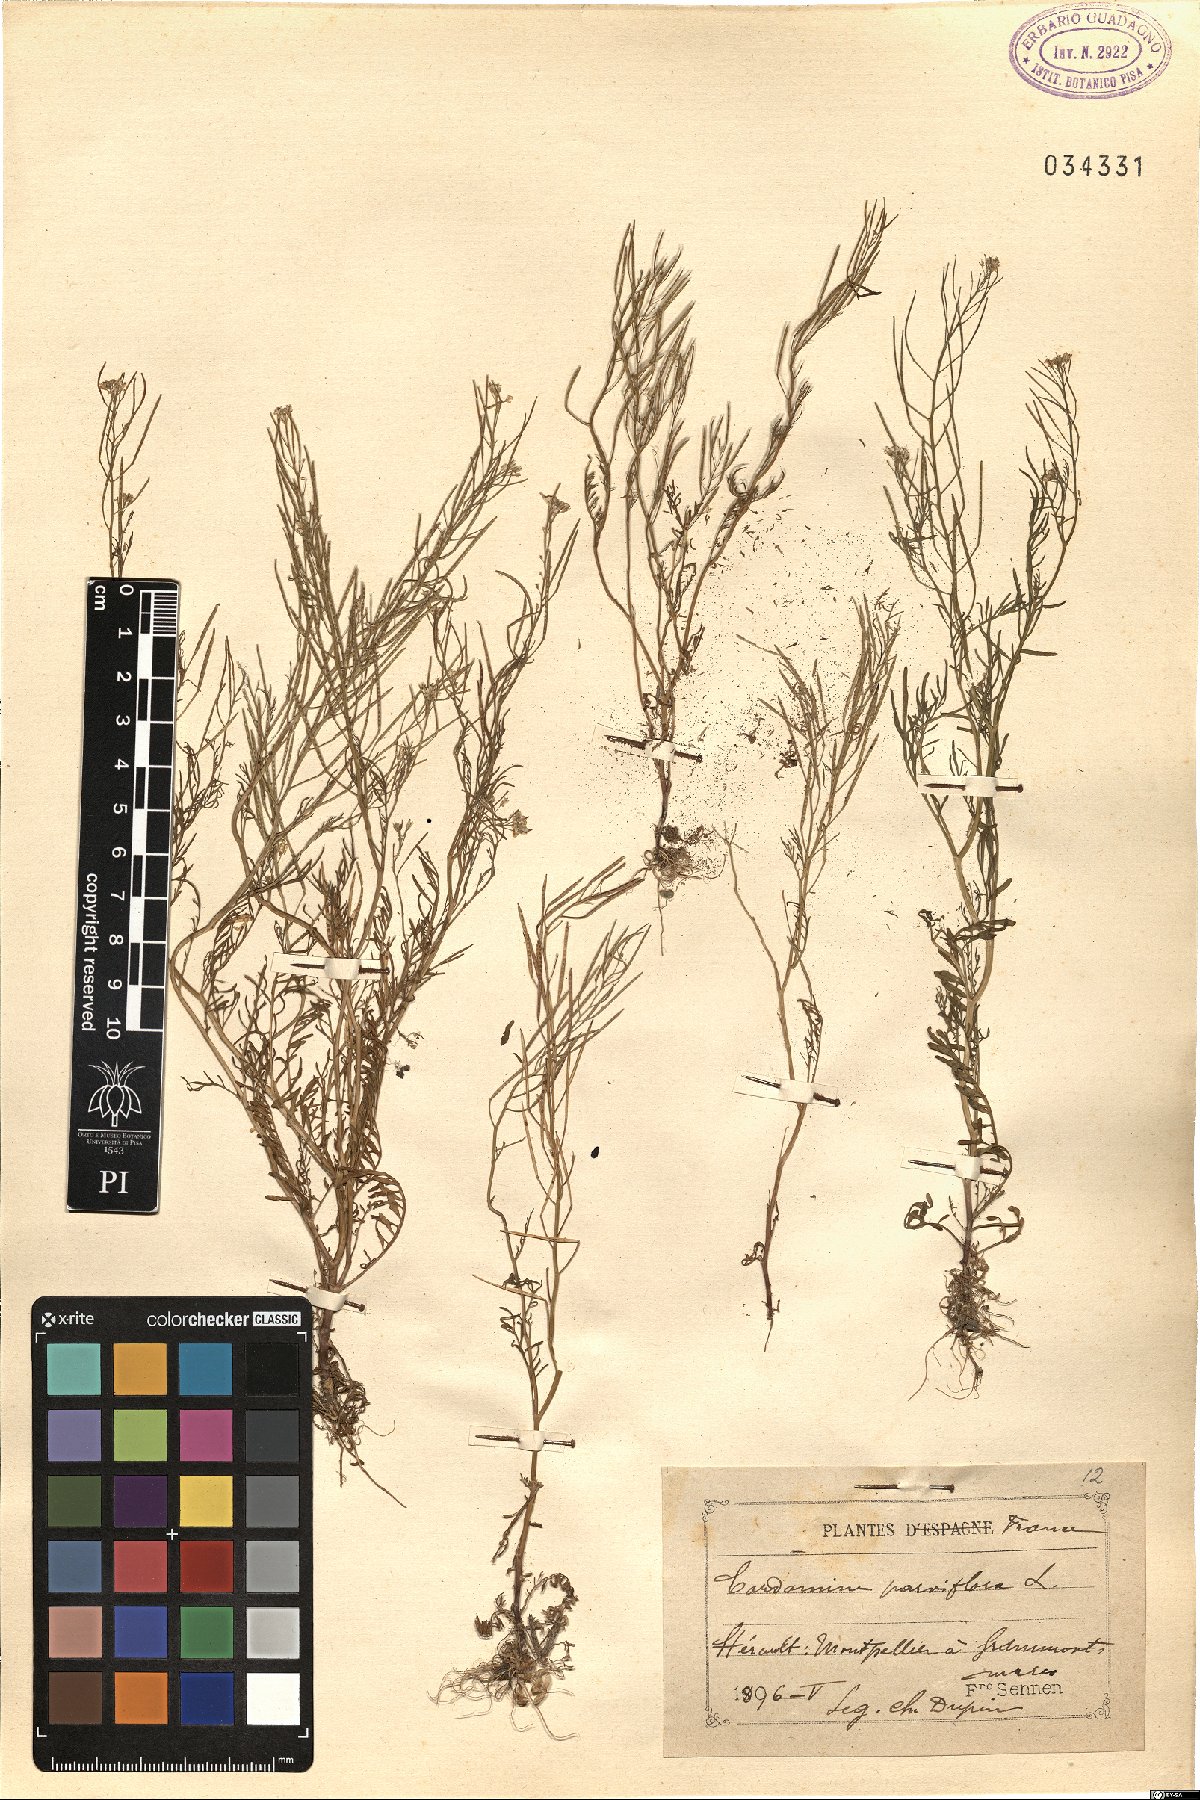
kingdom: Plantae
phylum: Tracheophyta
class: Magnoliopsida
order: Brassicales
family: Brassicaceae
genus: Cardamine
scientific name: Cardamine parviflora
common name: Sand bittercress
